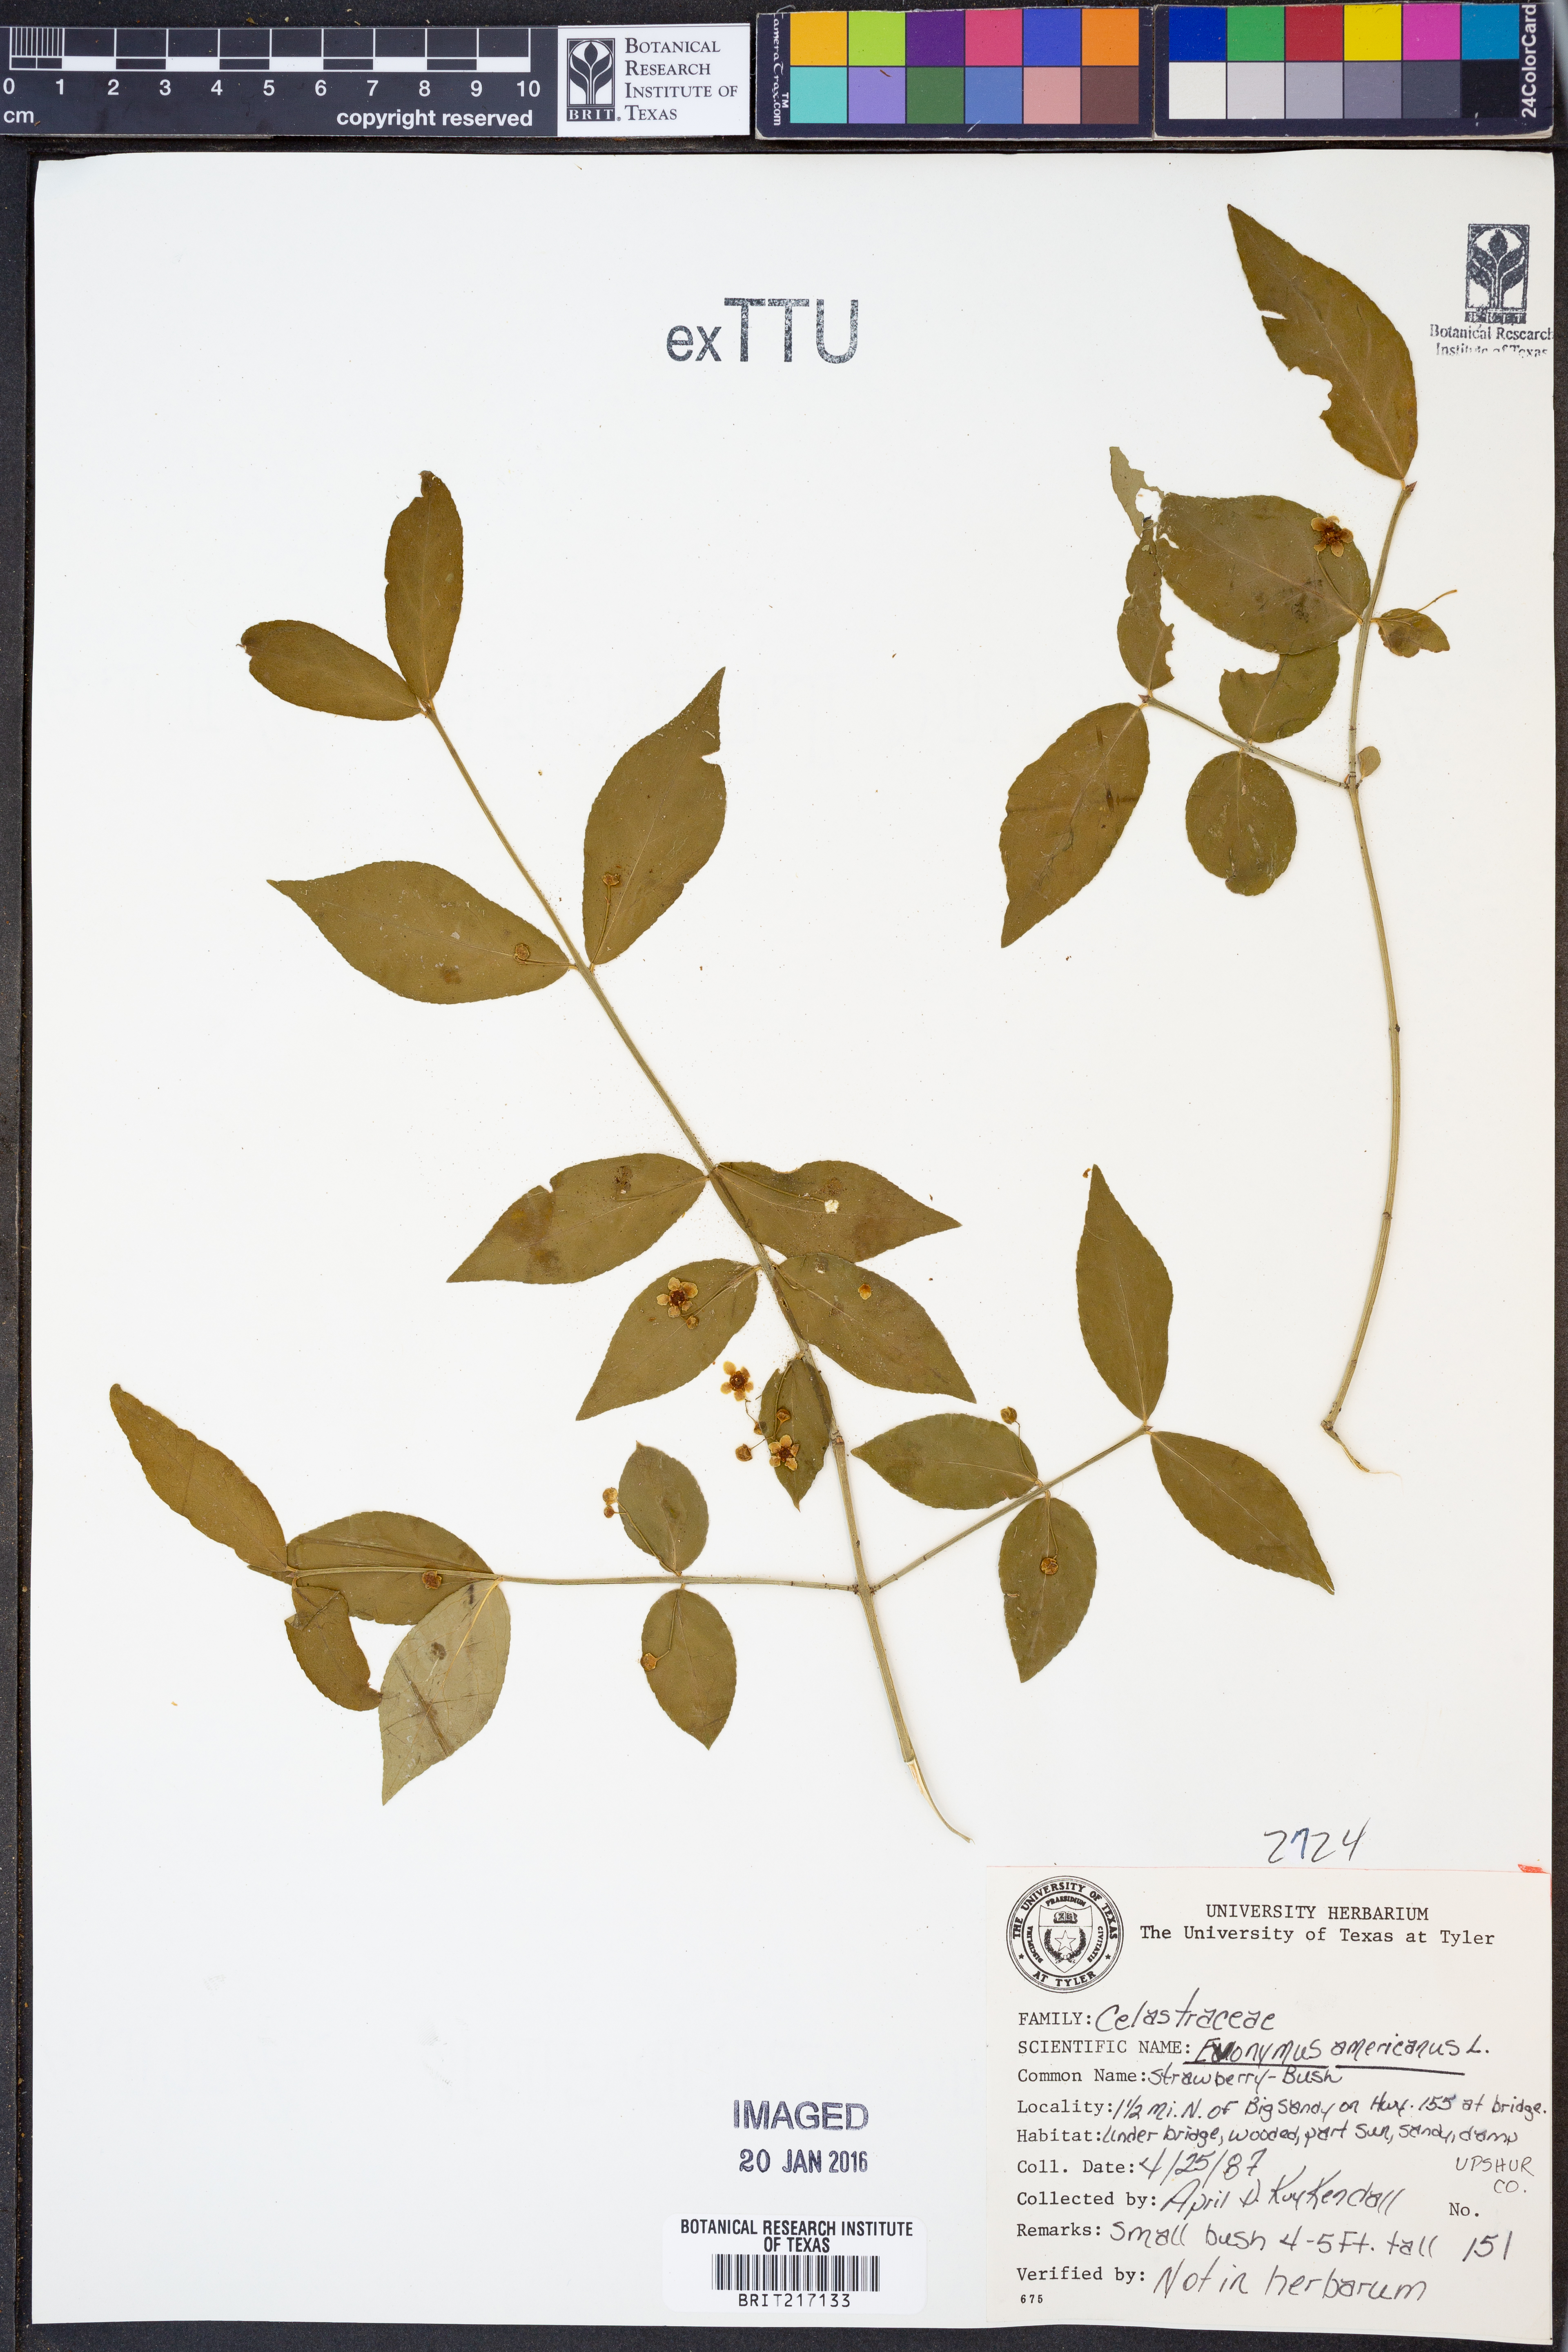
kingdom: Plantae
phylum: Tracheophyta
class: Magnoliopsida
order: Celastrales
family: Celastraceae
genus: Euonymus
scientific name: Euonymus americanus
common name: Bursting-heart
